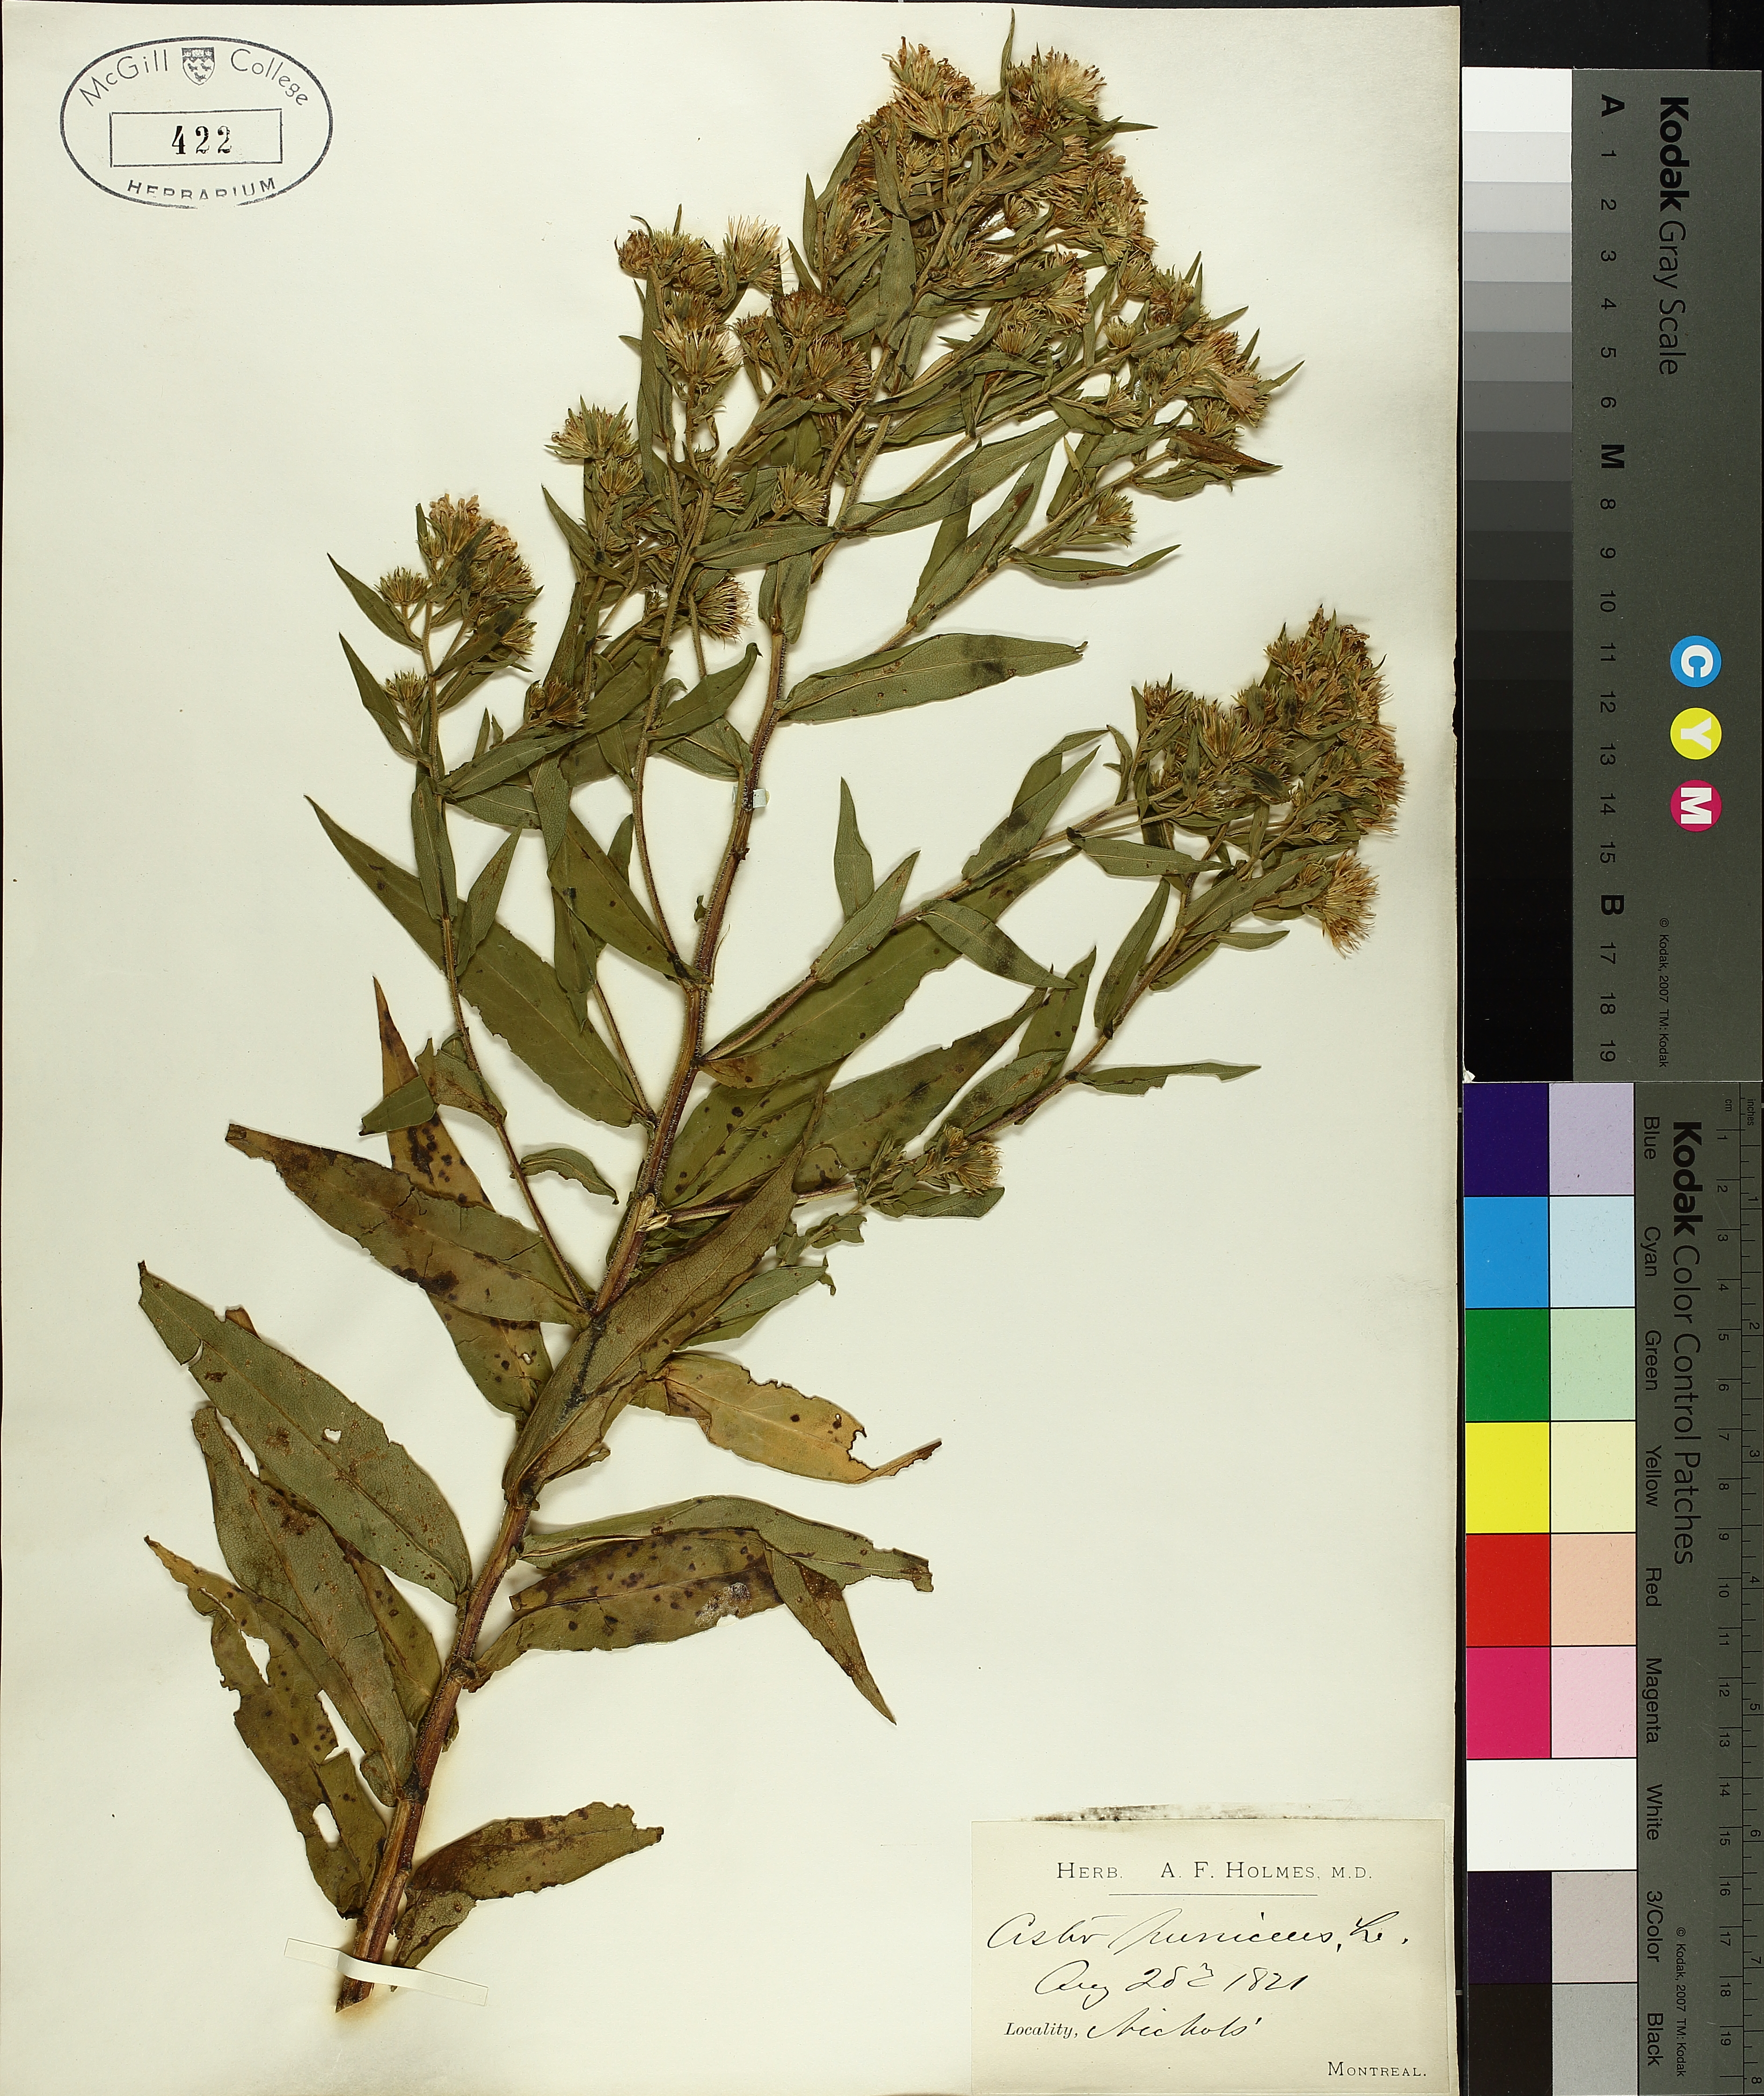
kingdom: Plantae
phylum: Tracheophyta
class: Magnoliopsida
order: Asterales
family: Asteraceae
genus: Symphyotrichum
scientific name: Symphyotrichum puniceum
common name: Bog aster
